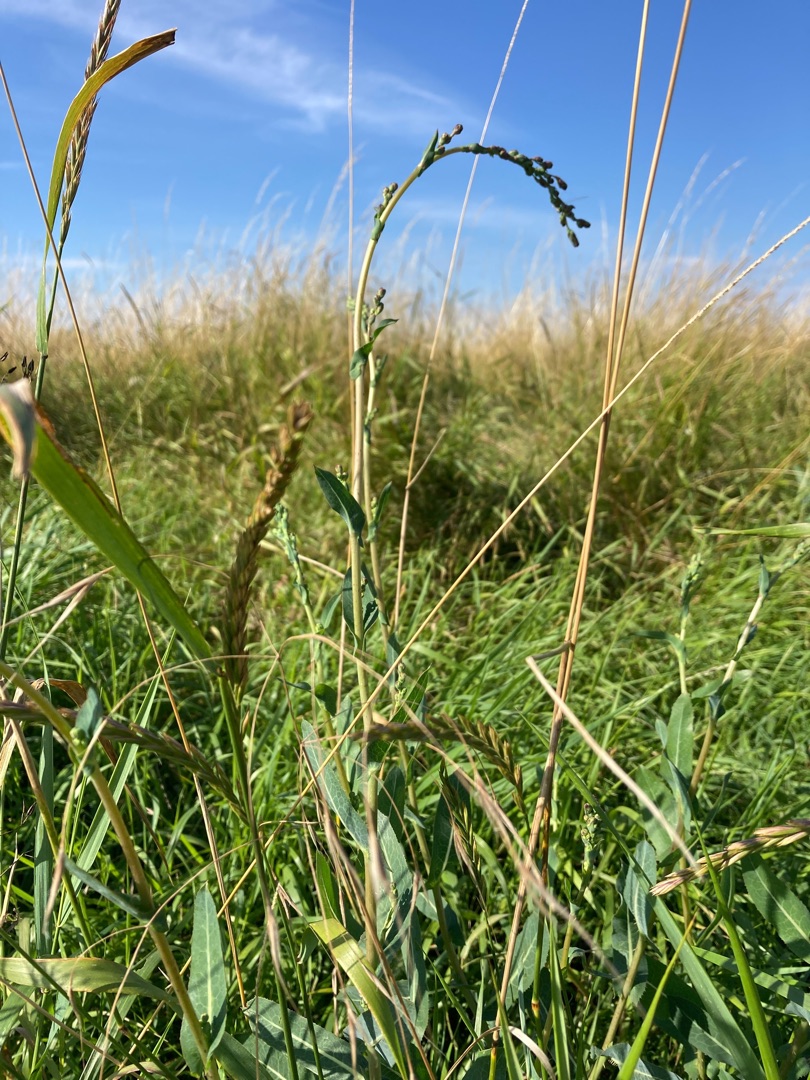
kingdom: Plantae
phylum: Tracheophyta
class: Magnoliopsida
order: Asterales
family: Asteraceae
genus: Lactuca
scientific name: Lactuca serriola
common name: Tornet salat
